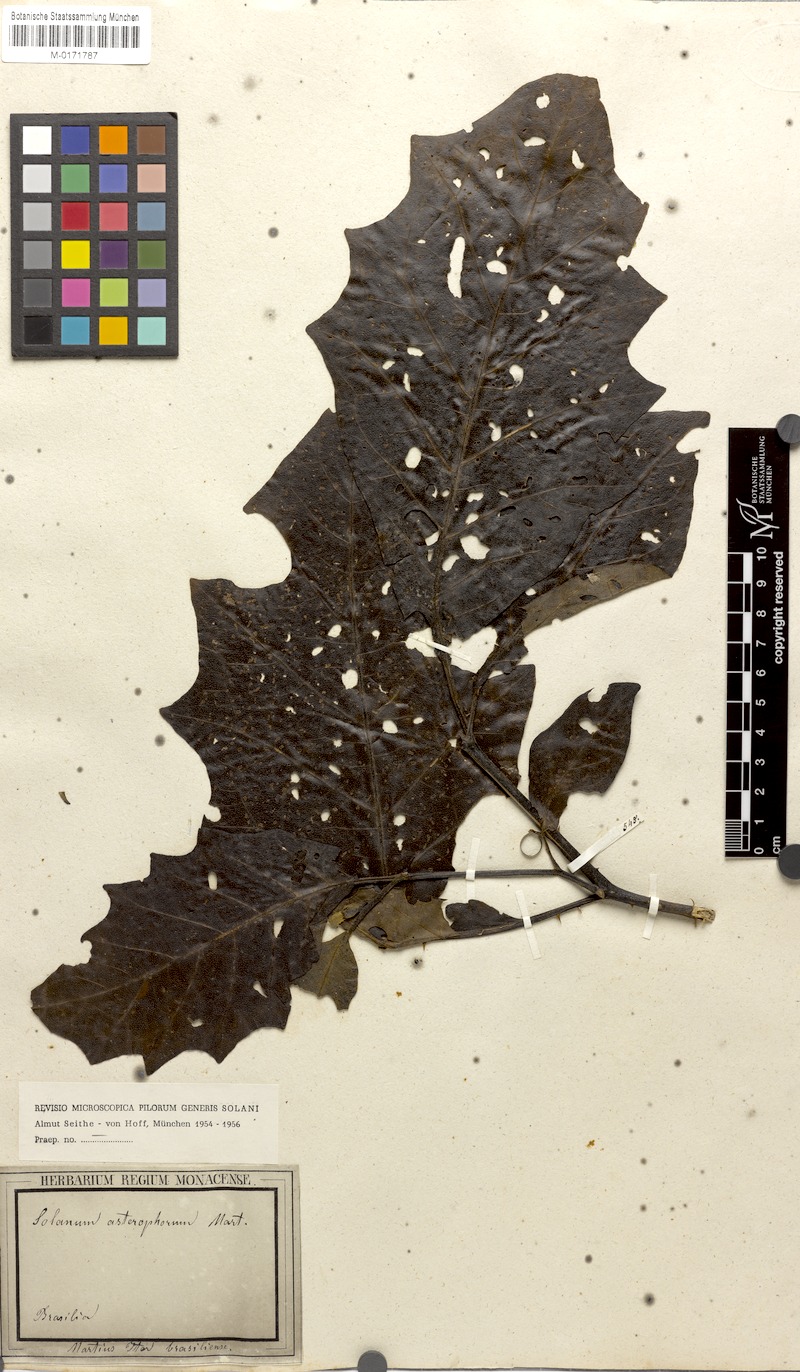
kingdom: Plantae
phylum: Tracheophyta
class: Magnoliopsida
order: Solanales
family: Solanaceae
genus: Solanum
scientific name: Solanum asterophorum
